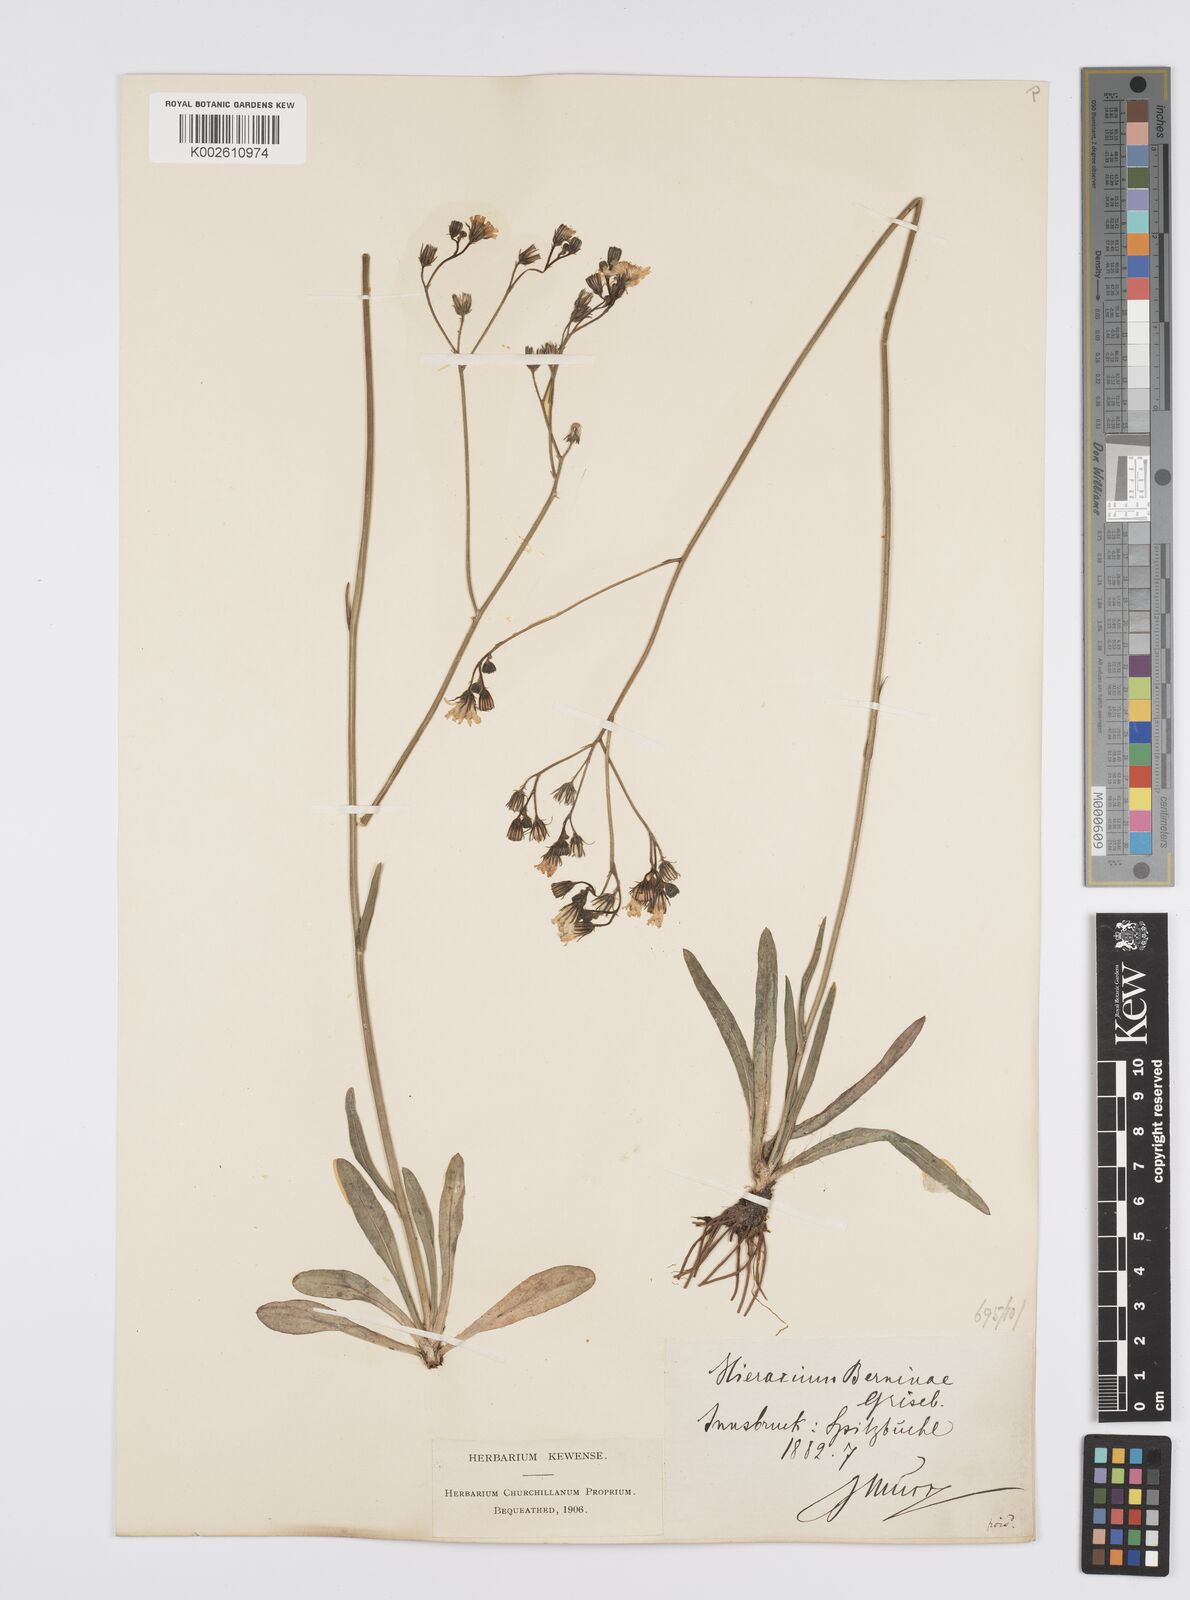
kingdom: Plantae
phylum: Tracheophyta
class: Magnoliopsida
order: Asterales
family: Asteraceae
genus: Pilosella
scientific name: Pilosella piloselloides
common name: Glaucous king-devil
